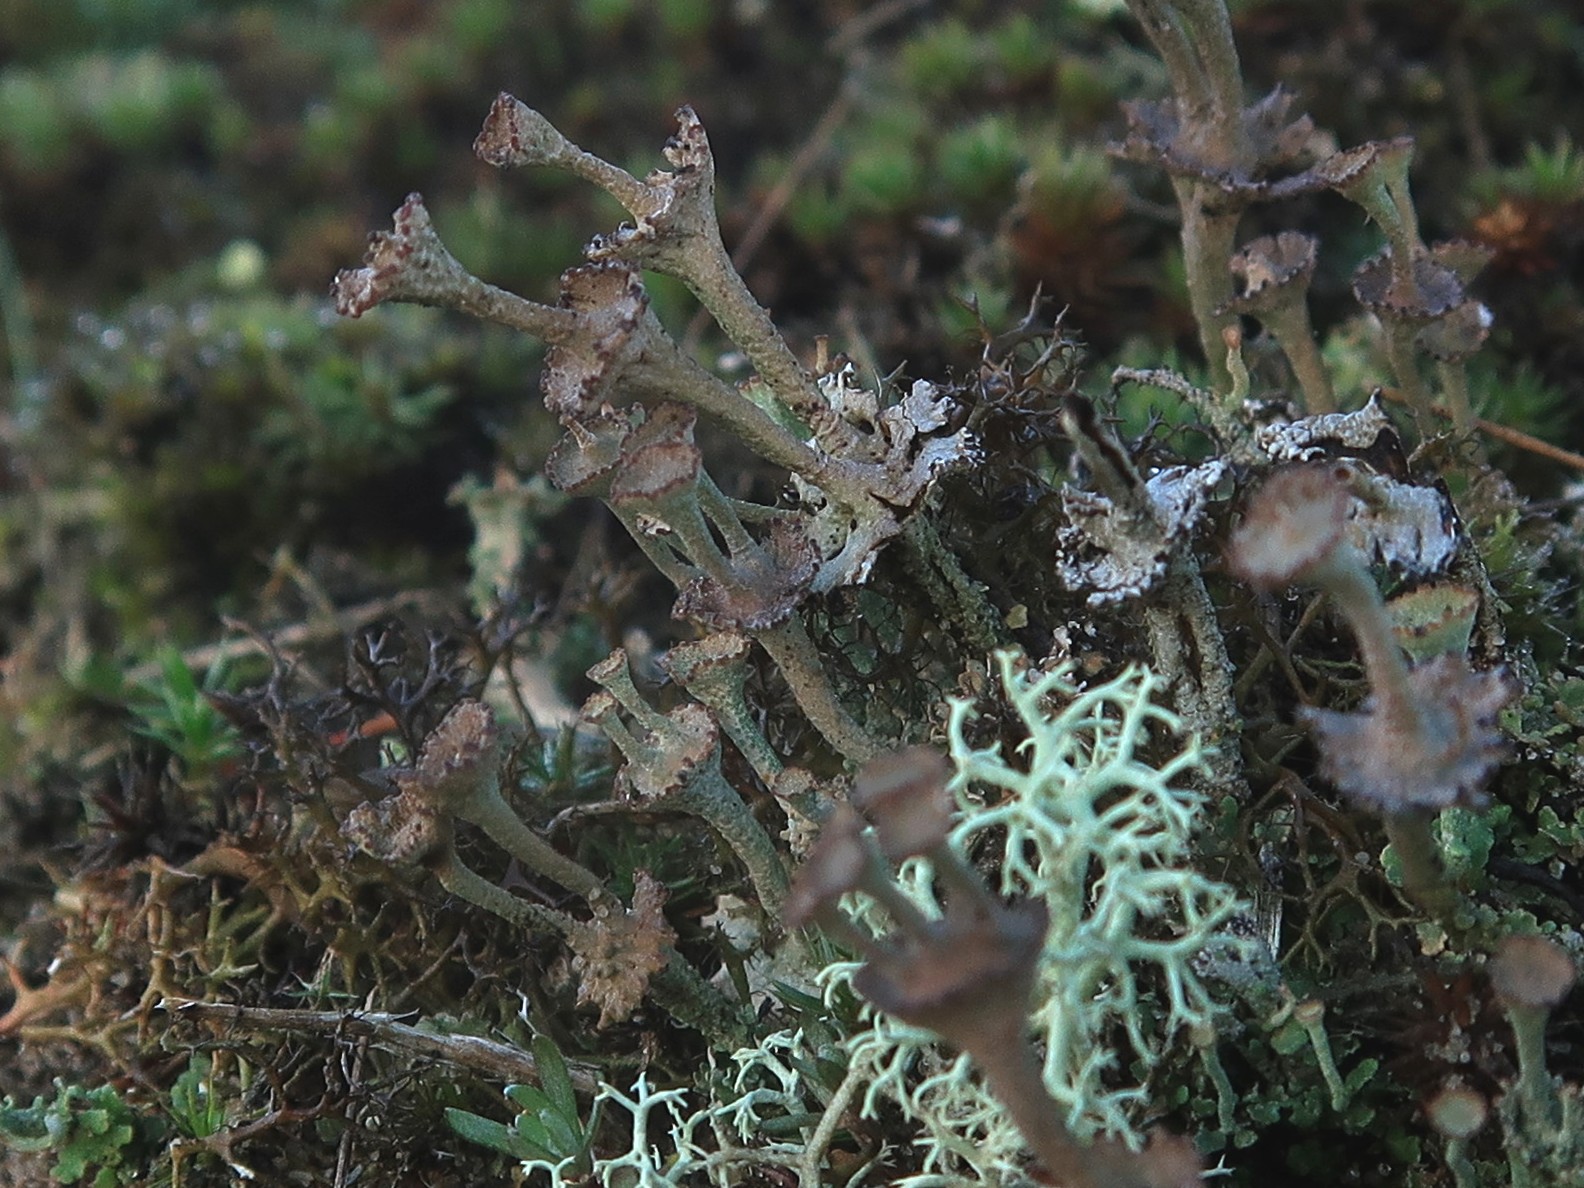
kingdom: Fungi
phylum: Ascomycota
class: Lecanoromycetes
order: Lecanorales
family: Cladoniaceae
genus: Cladonia
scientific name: Cladonia cervicornis
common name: etage-bægerlav
